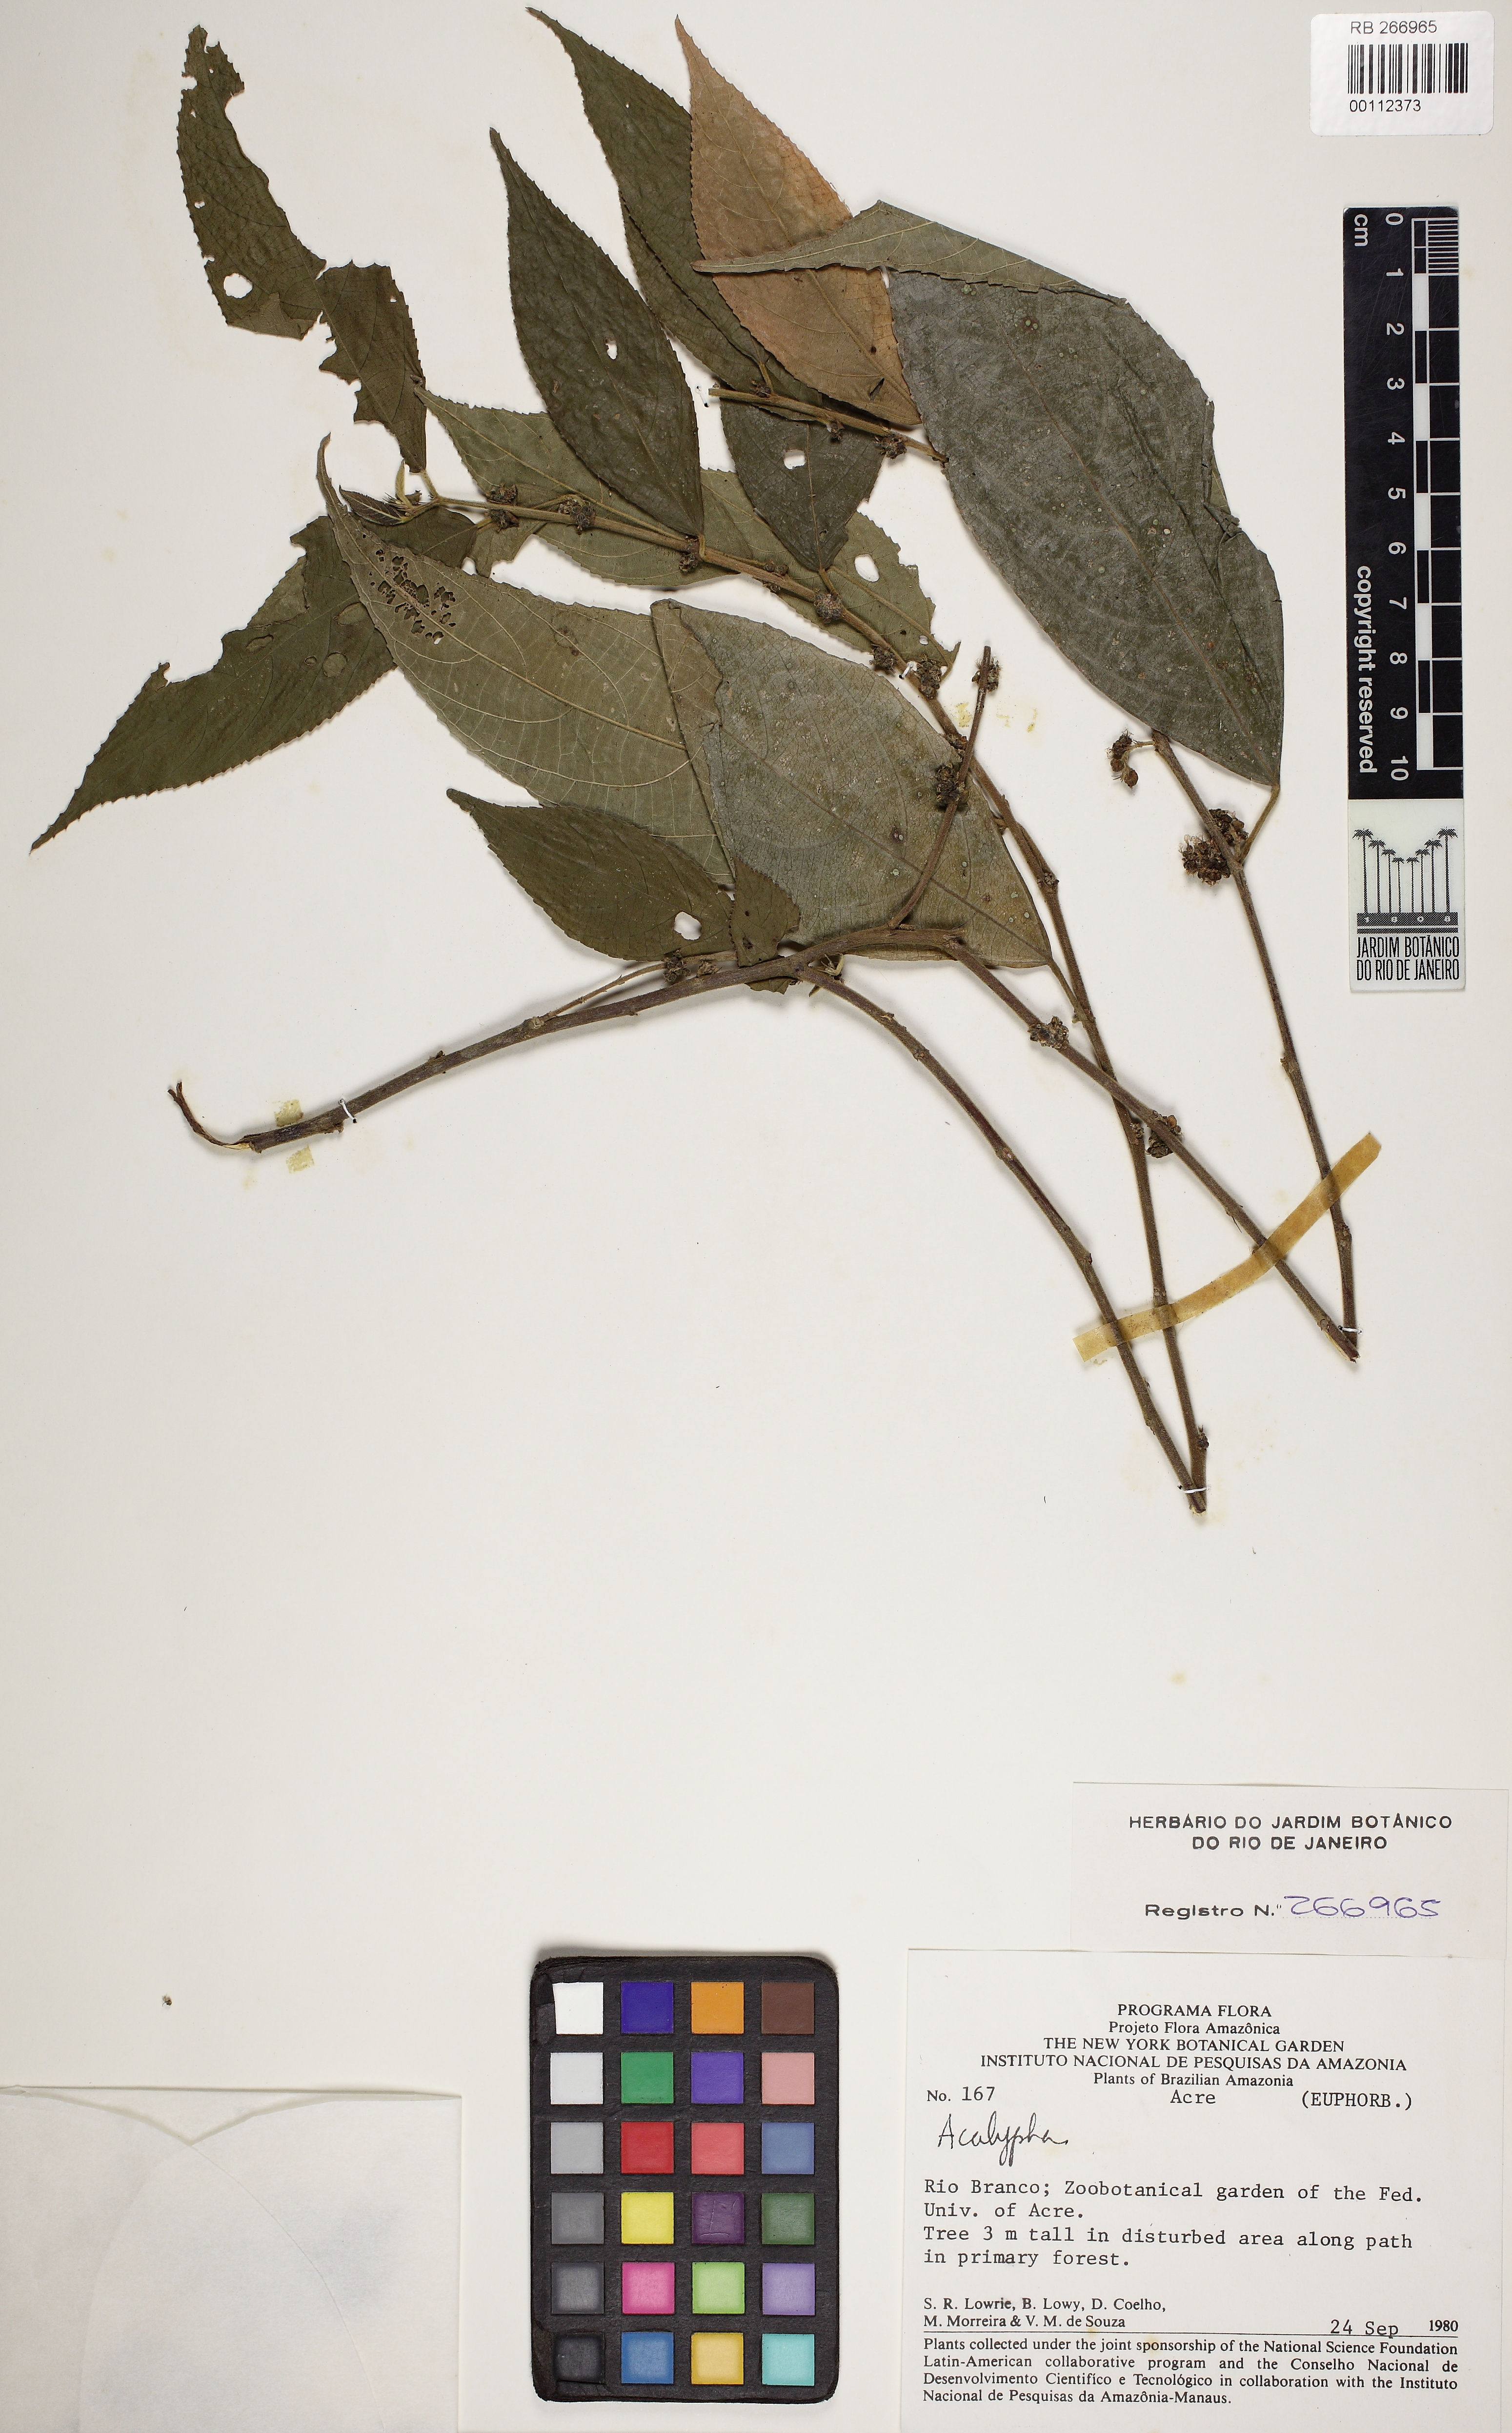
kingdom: Plantae
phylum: Tracheophyta
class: Magnoliopsida
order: Malpighiales
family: Euphorbiaceae
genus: Acalypha
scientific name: Acalypha
